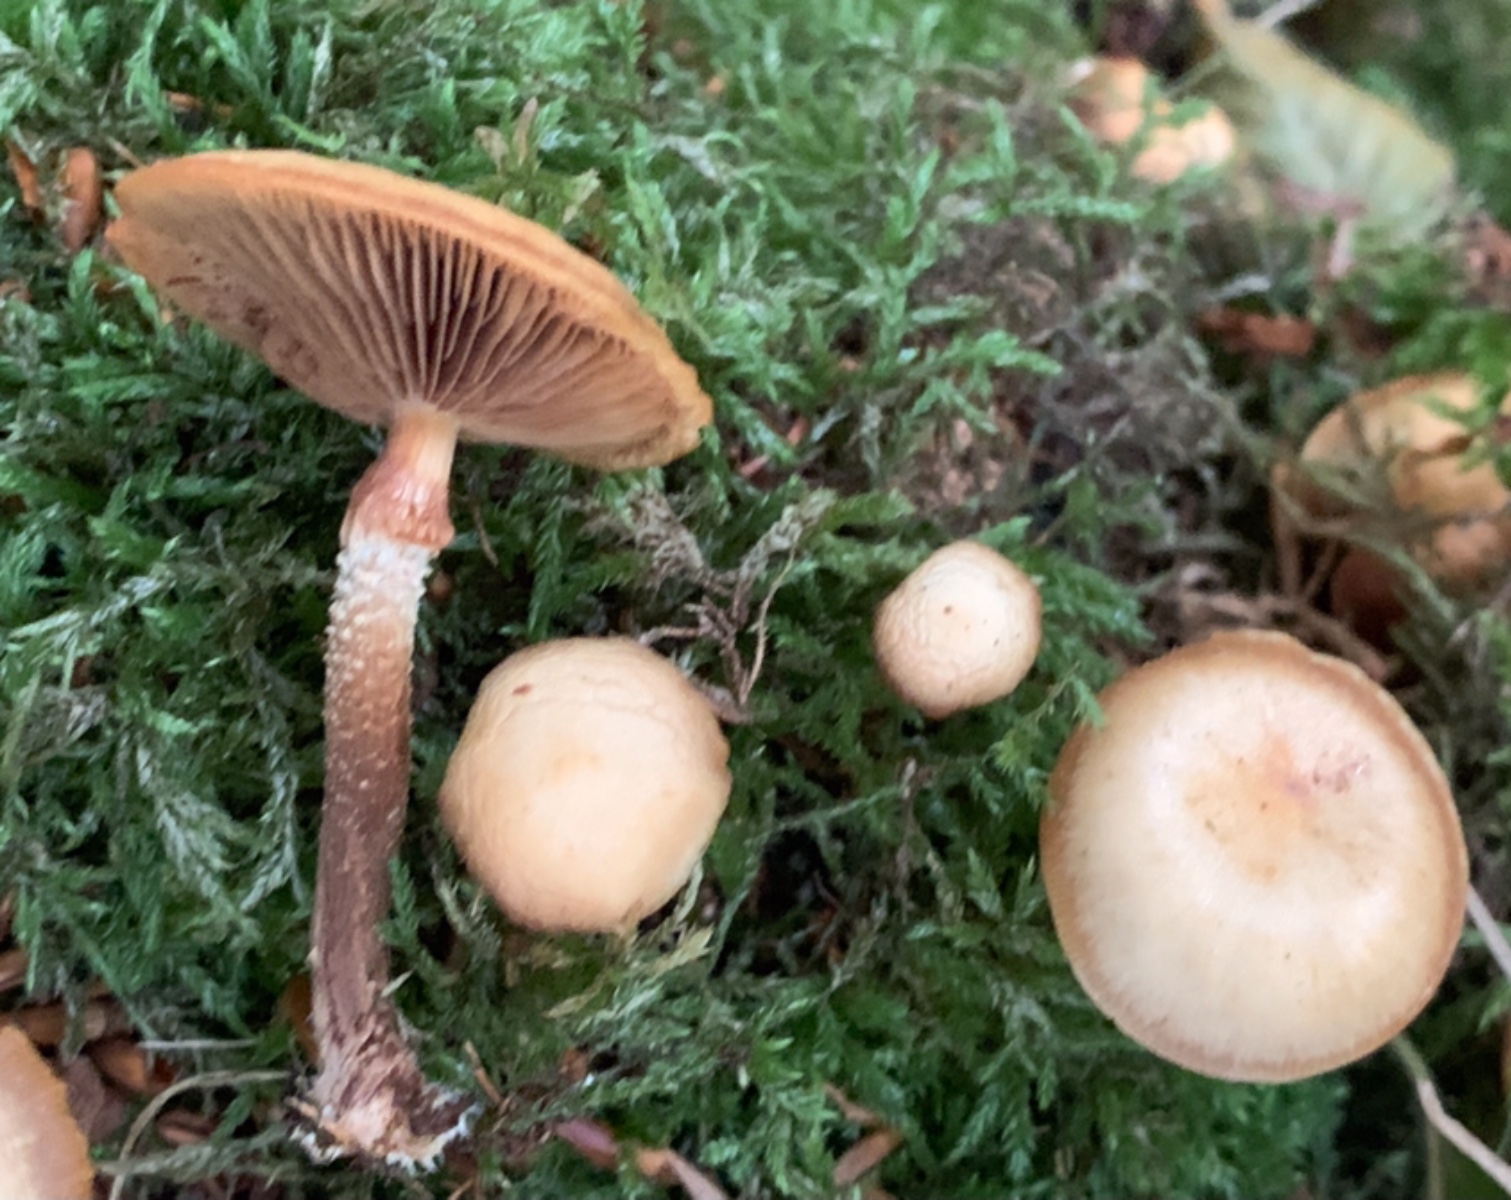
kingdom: Fungi
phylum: Basidiomycota
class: Agaricomycetes
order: Agaricales
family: Strophariaceae
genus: Kuehneromyces
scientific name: Kuehneromyces mutabilis
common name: foranderlig skælhat
